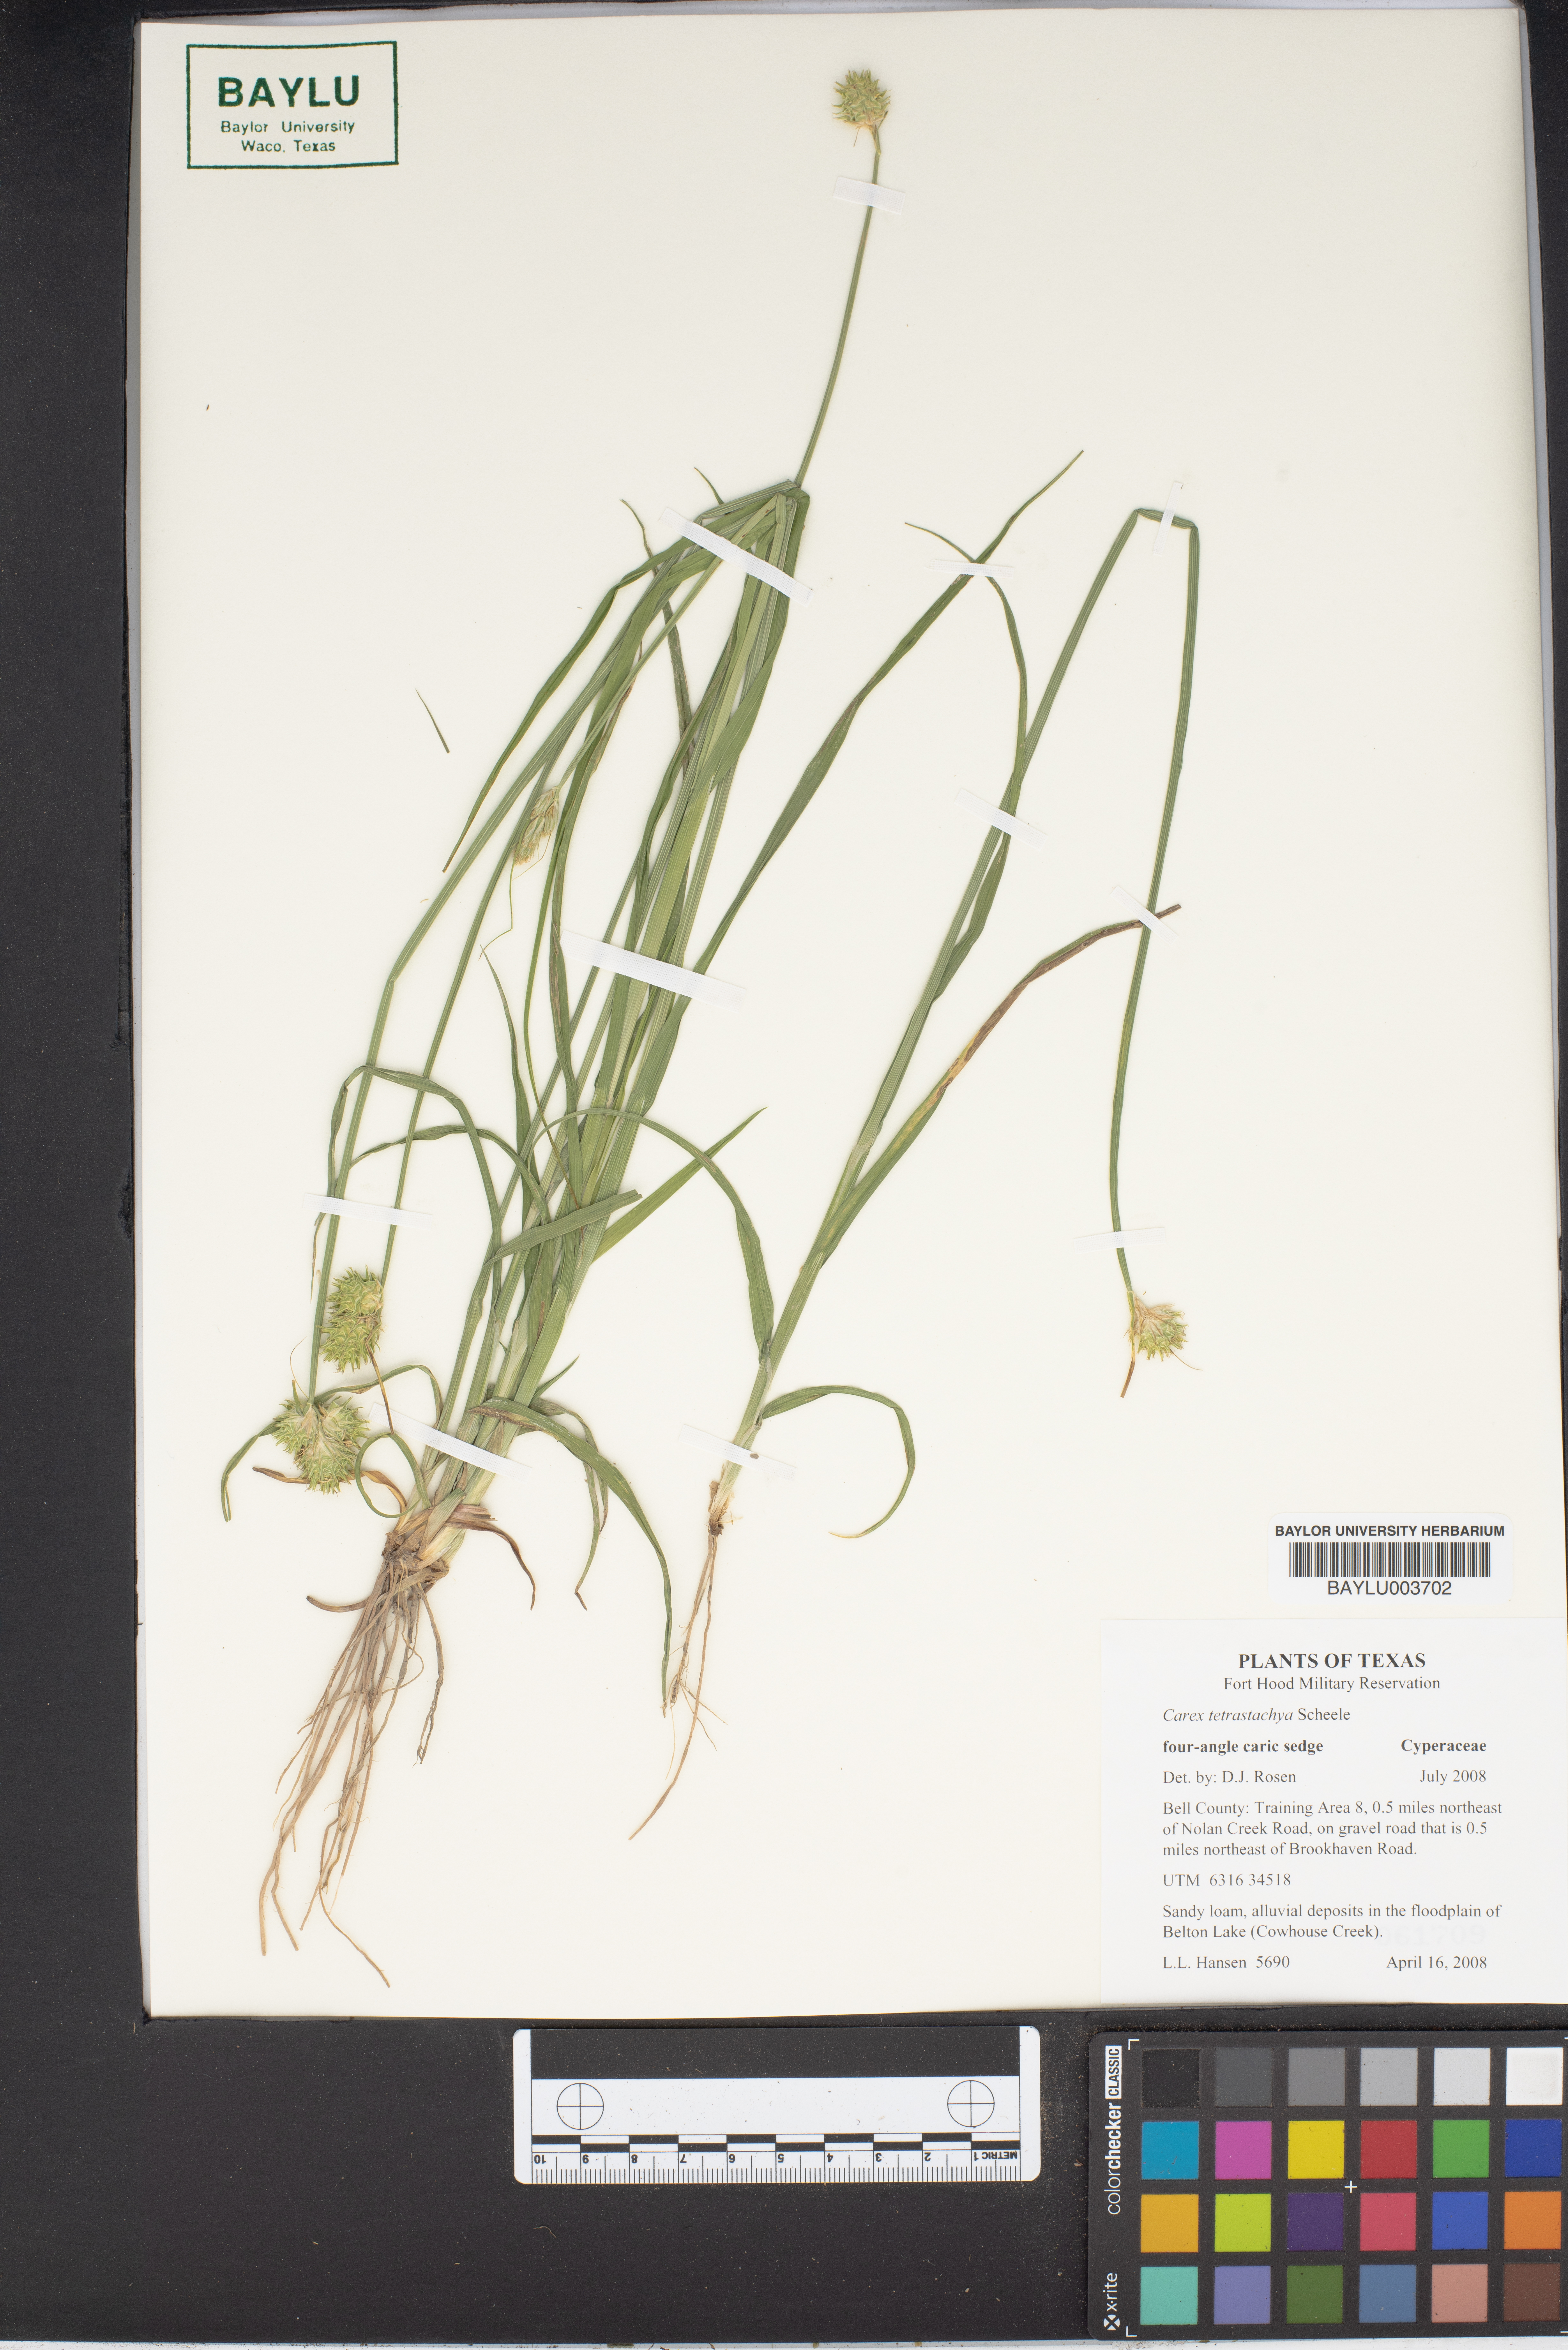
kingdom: Plantae
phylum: Tracheophyta
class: Liliopsida
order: Poales
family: Cyperaceae
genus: Carex
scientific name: Carex tetrastachya
